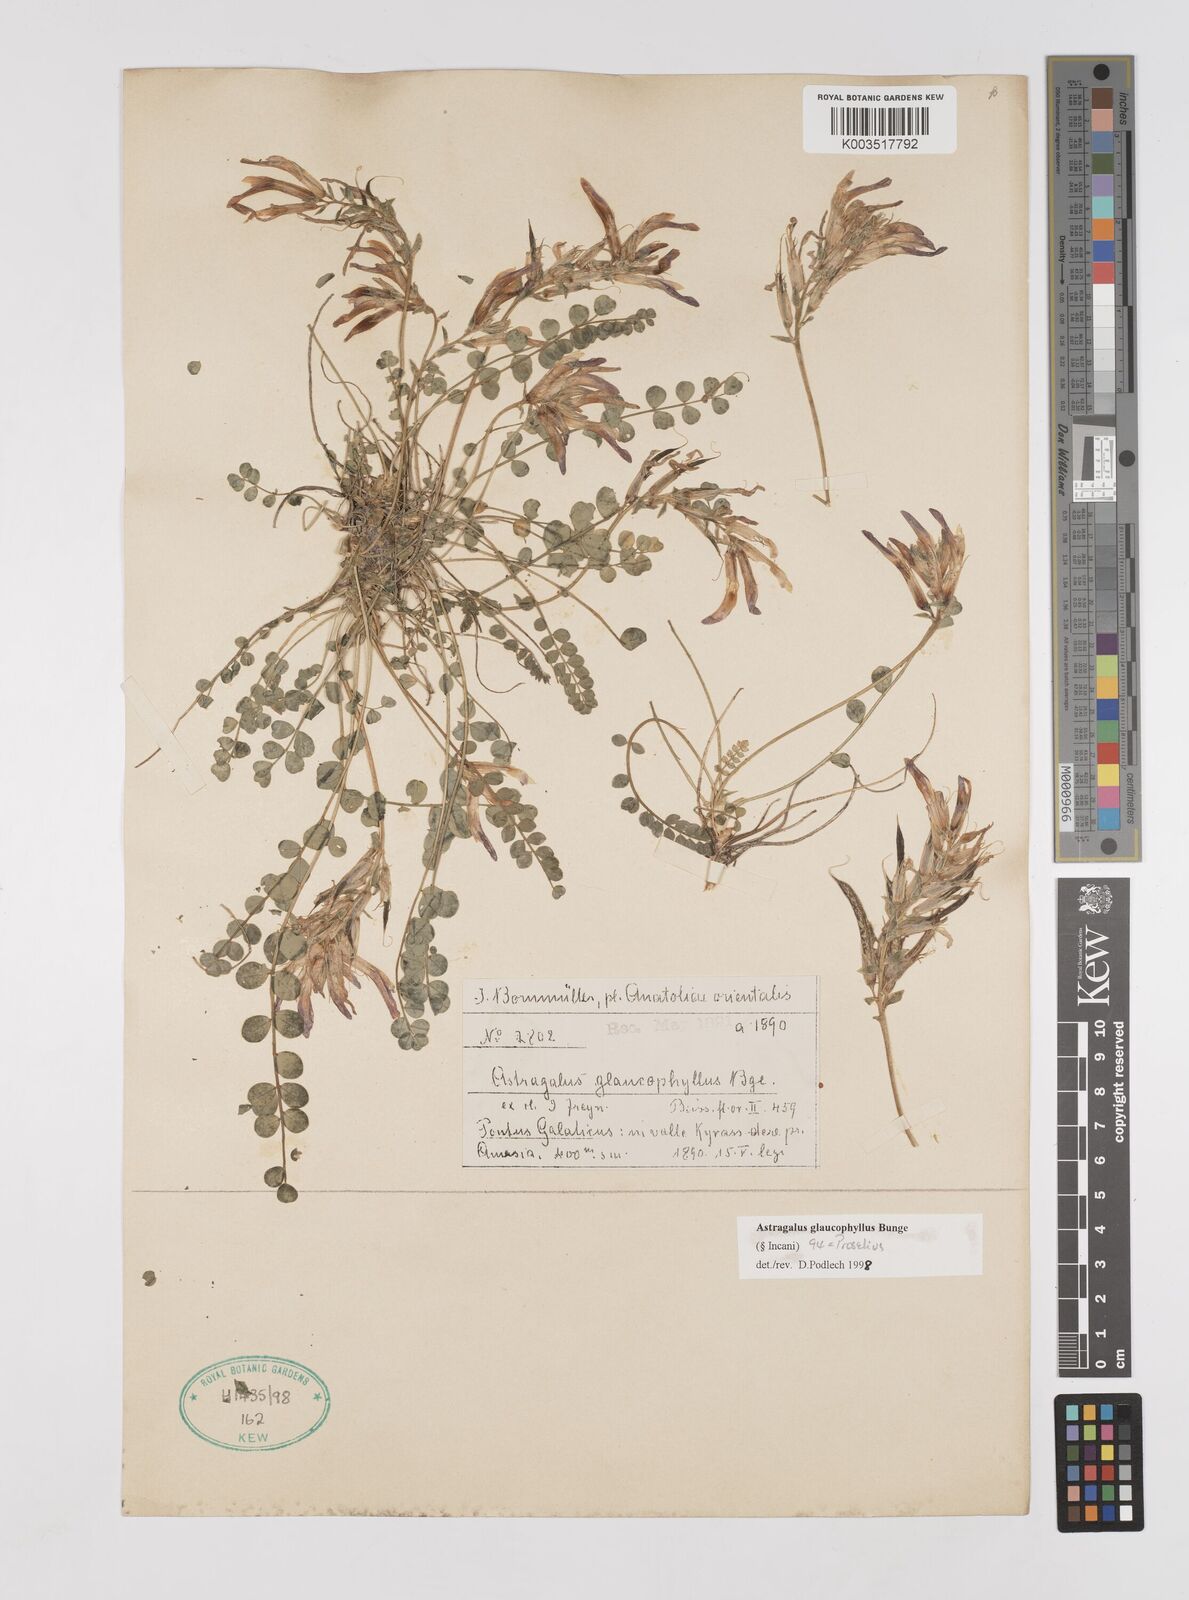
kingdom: Plantae
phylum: Tracheophyta
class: Magnoliopsida
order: Fabales
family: Fabaceae
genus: Astragalus
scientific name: Astragalus glaucophyllus
